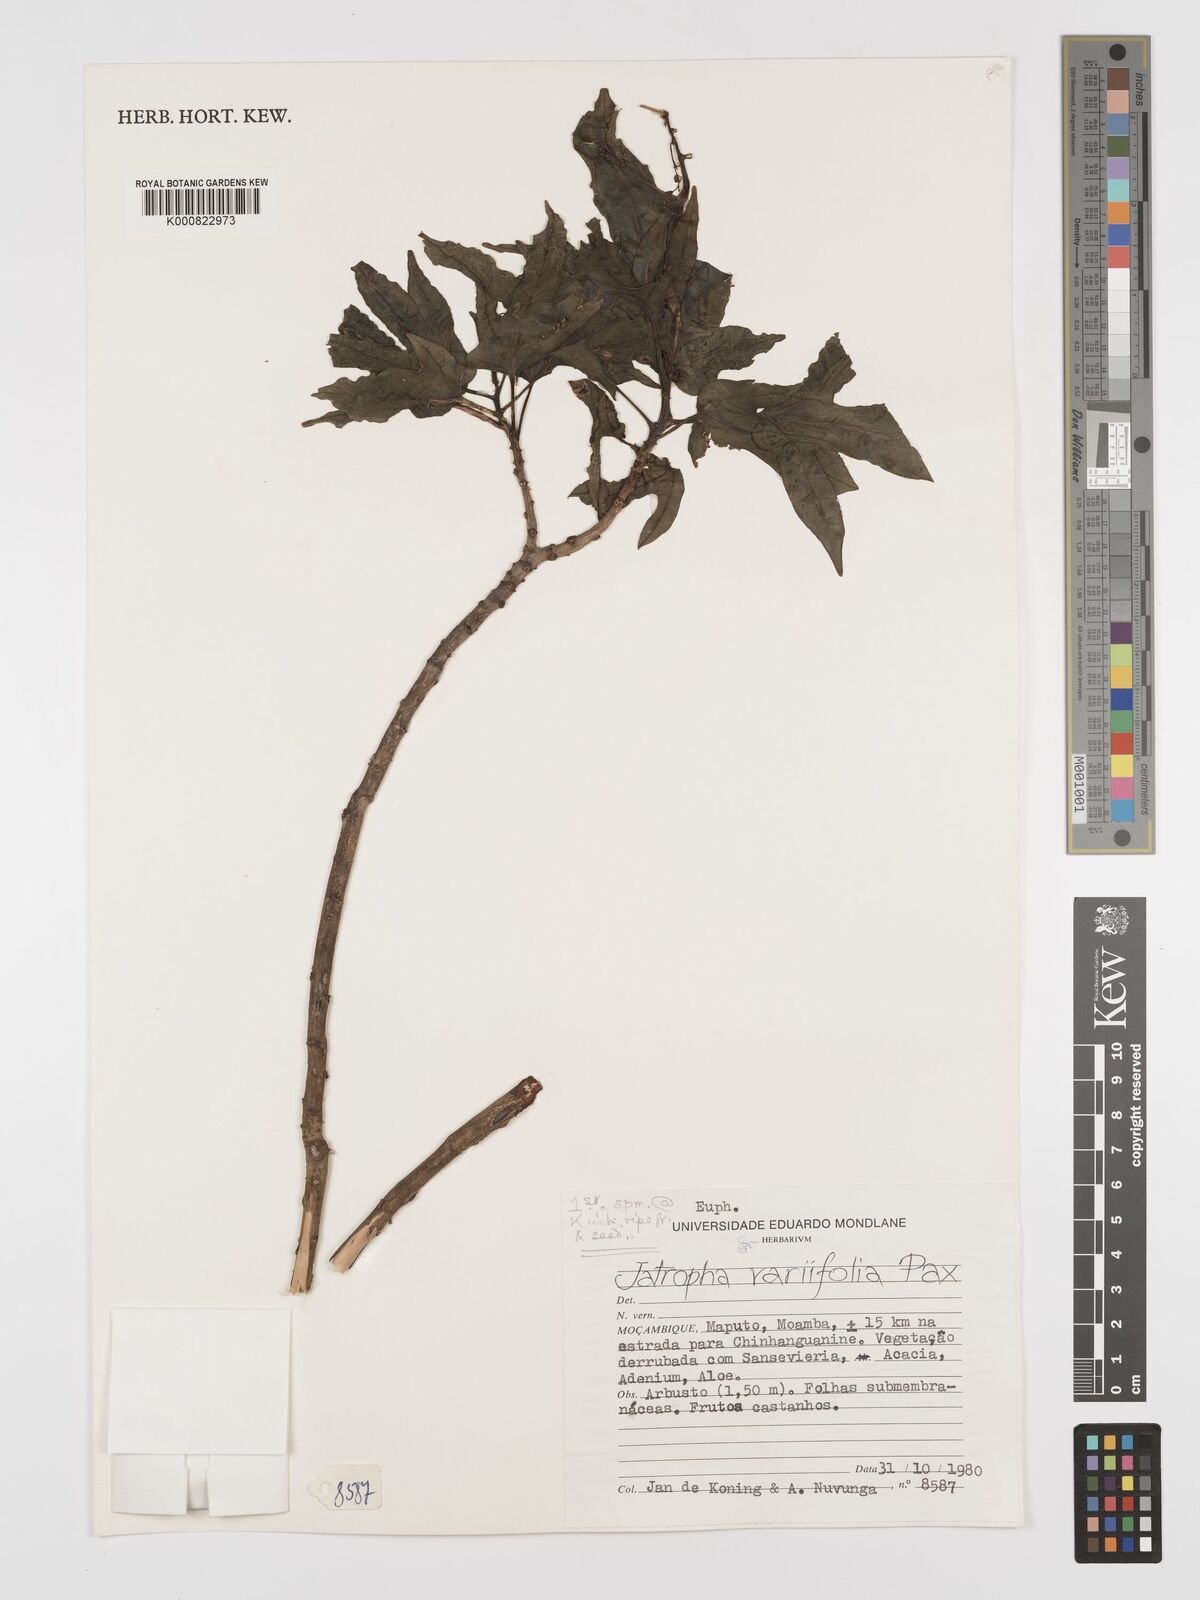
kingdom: Plantae
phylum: Tracheophyta
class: Magnoliopsida
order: Malpighiales
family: Euphorbiaceae
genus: Jatropha
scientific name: Jatropha variifolia
